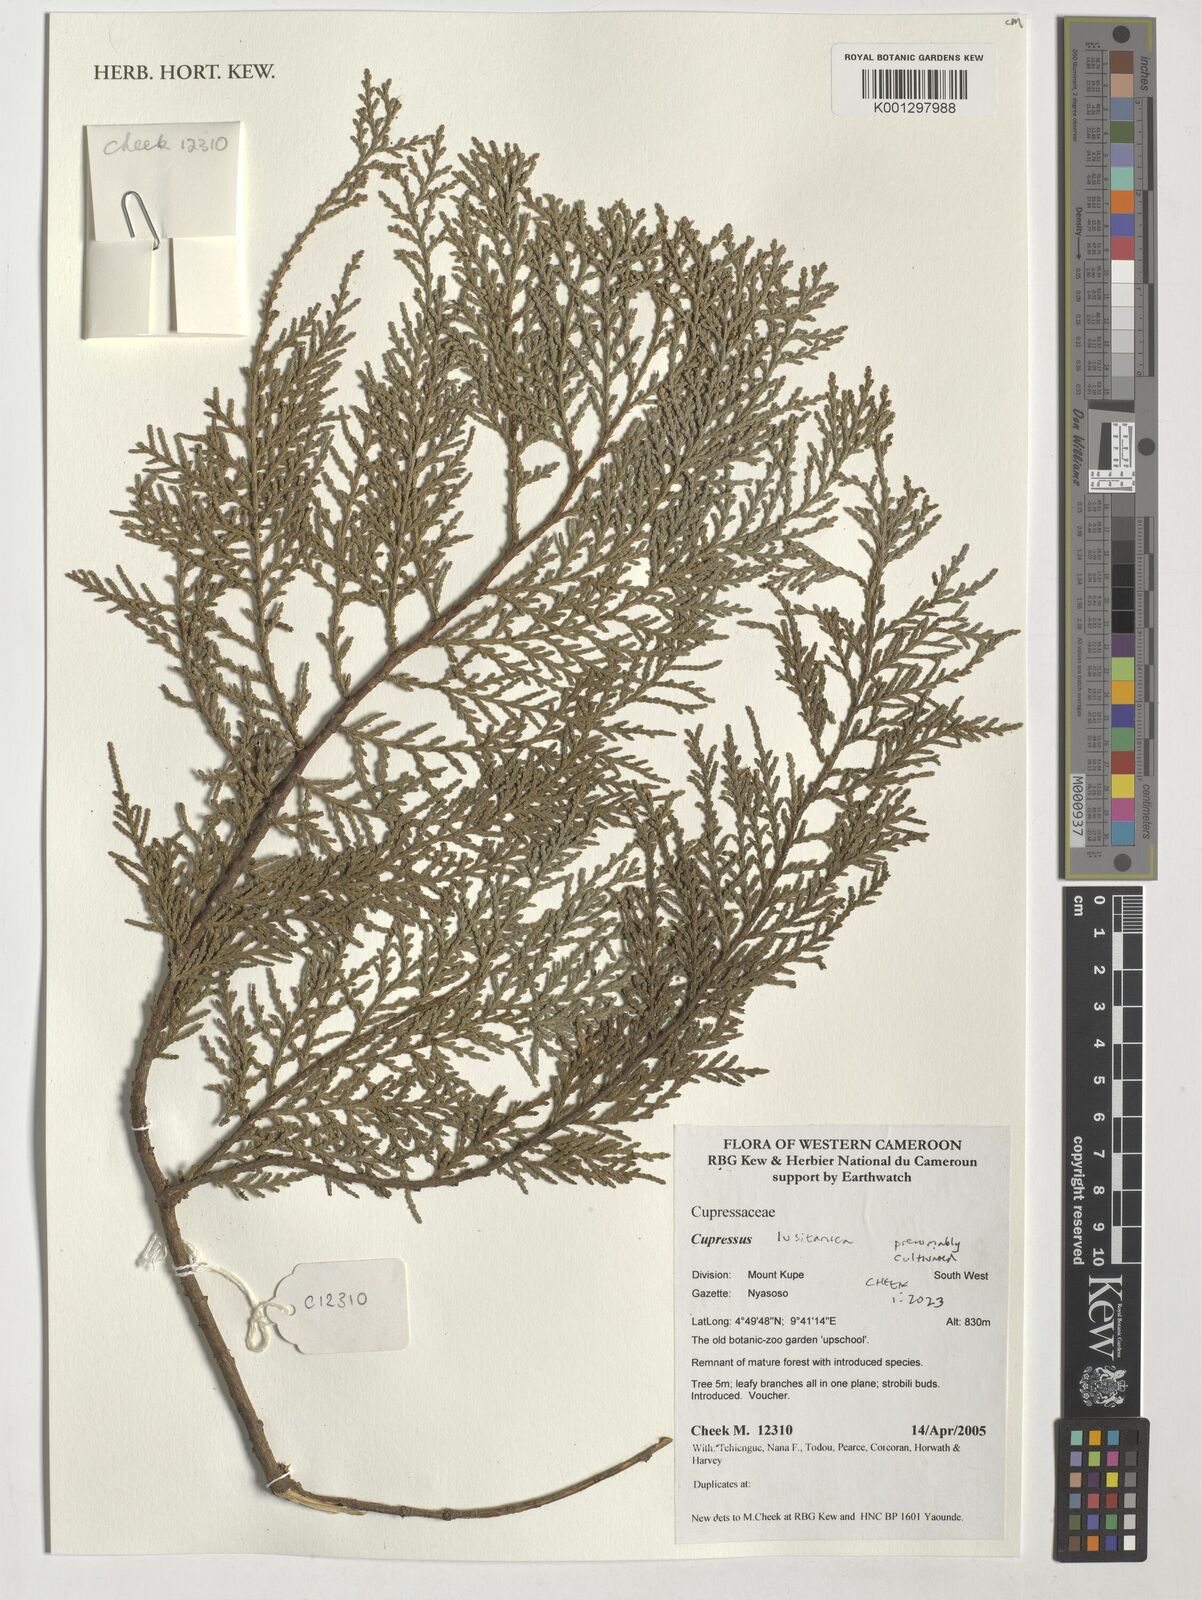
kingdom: Plantae
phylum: Tracheophyta
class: Pinopsida
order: Pinales
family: Cupressaceae
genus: Cupressus
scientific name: Cupressus lusitanica
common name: Mexican cypress
